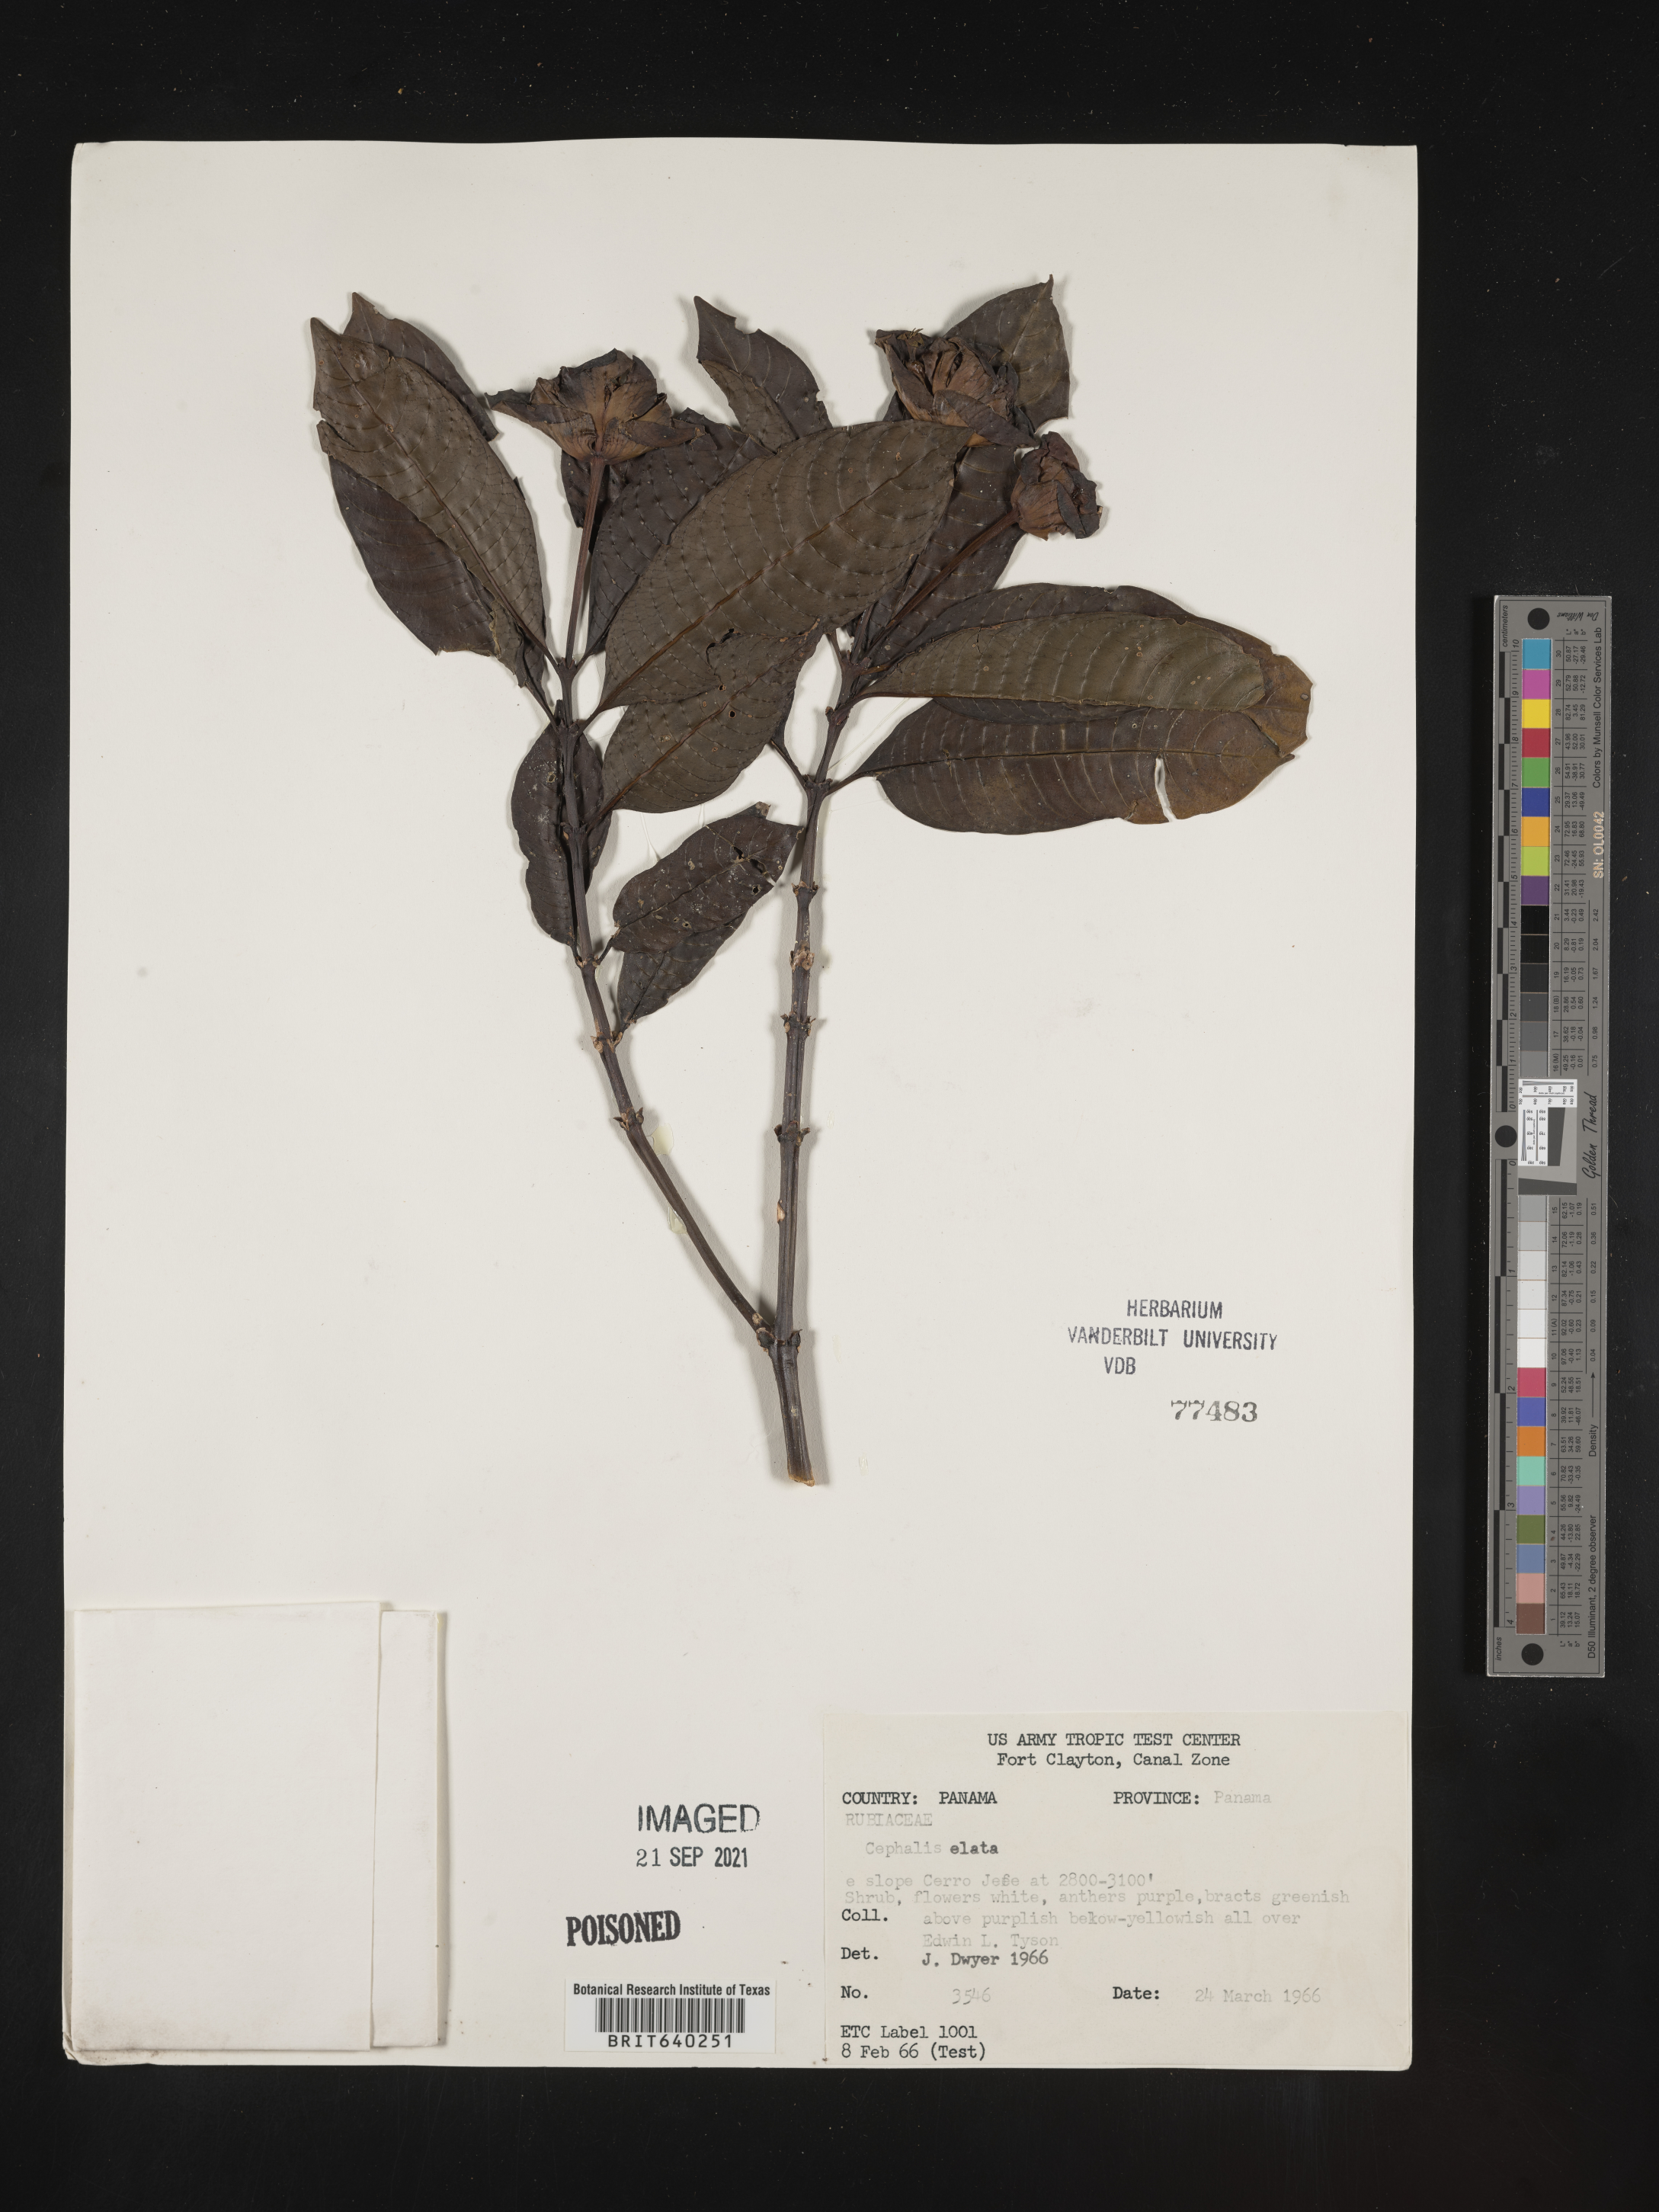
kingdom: Plantae
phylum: Tracheophyta
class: Magnoliopsida
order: Gentianales
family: Rubiaceae
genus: Psychotria
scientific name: Psychotria
